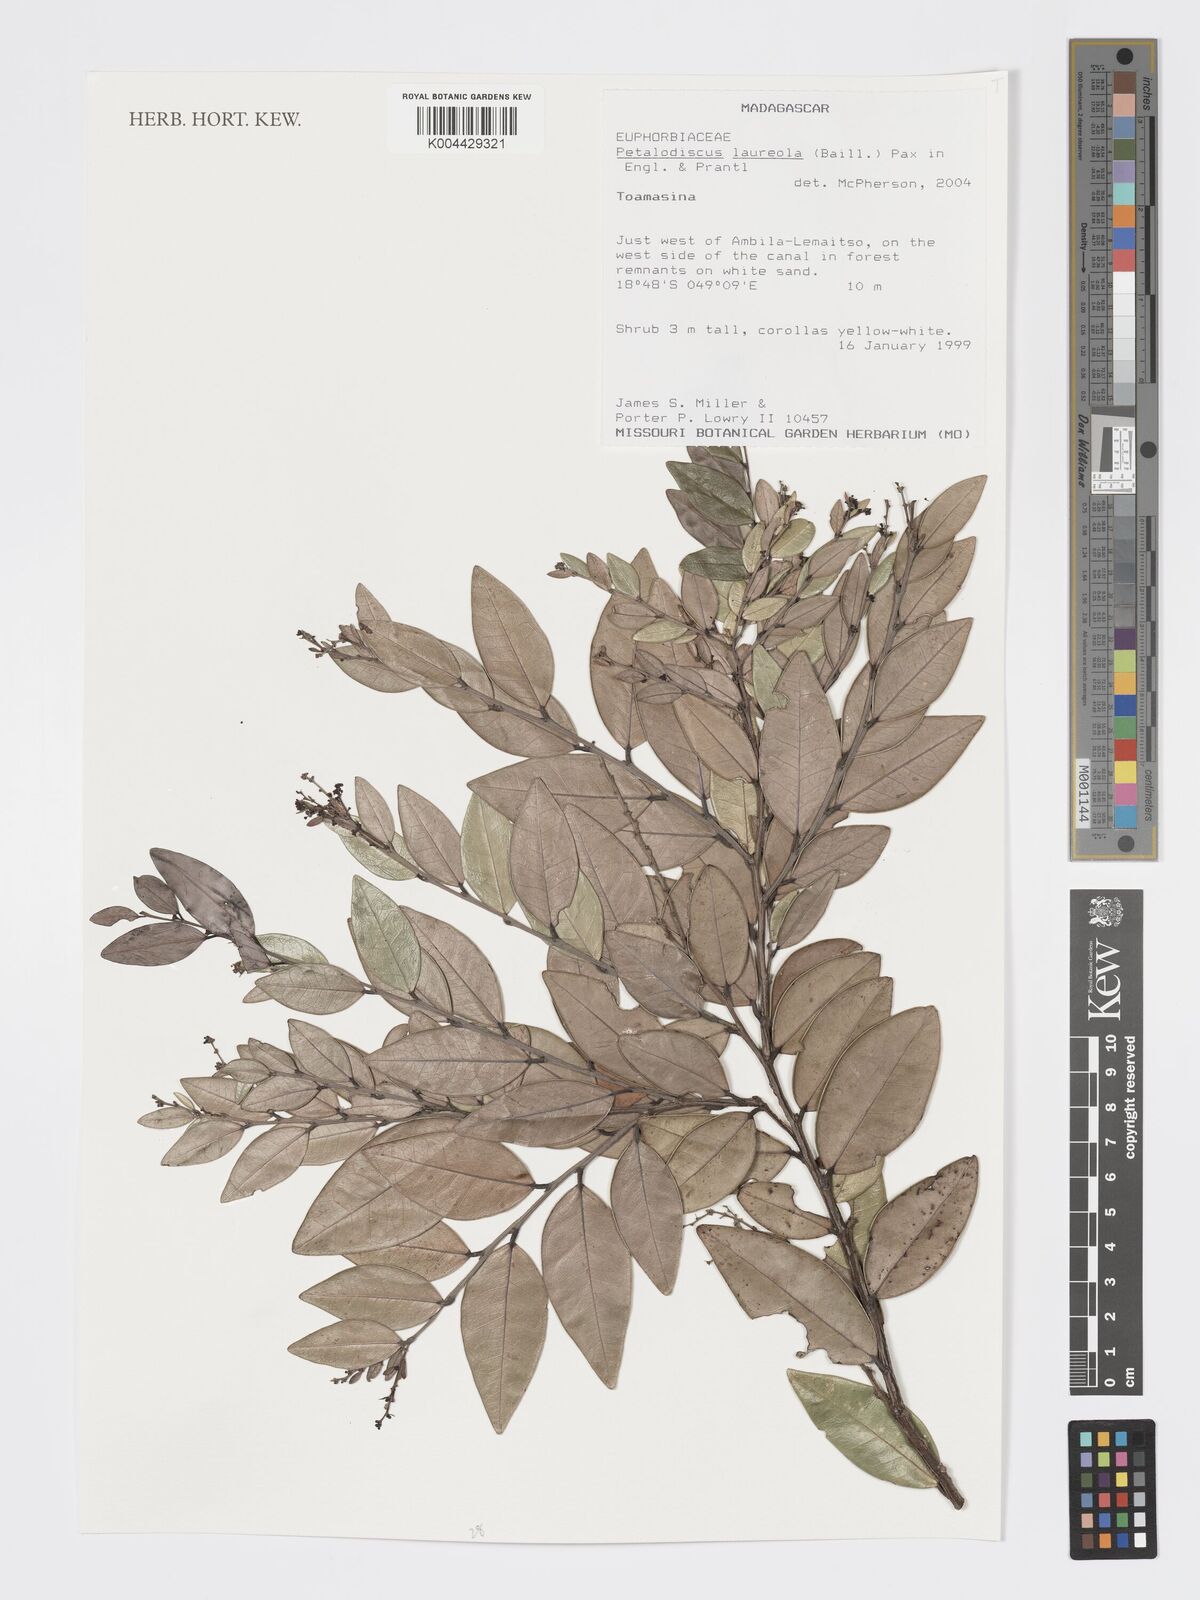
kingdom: Plantae
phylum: Tracheophyta
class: Magnoliopsida
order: Malpighiales
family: Phyllanthaceae
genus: Wielandia
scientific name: Wielandia laureola
